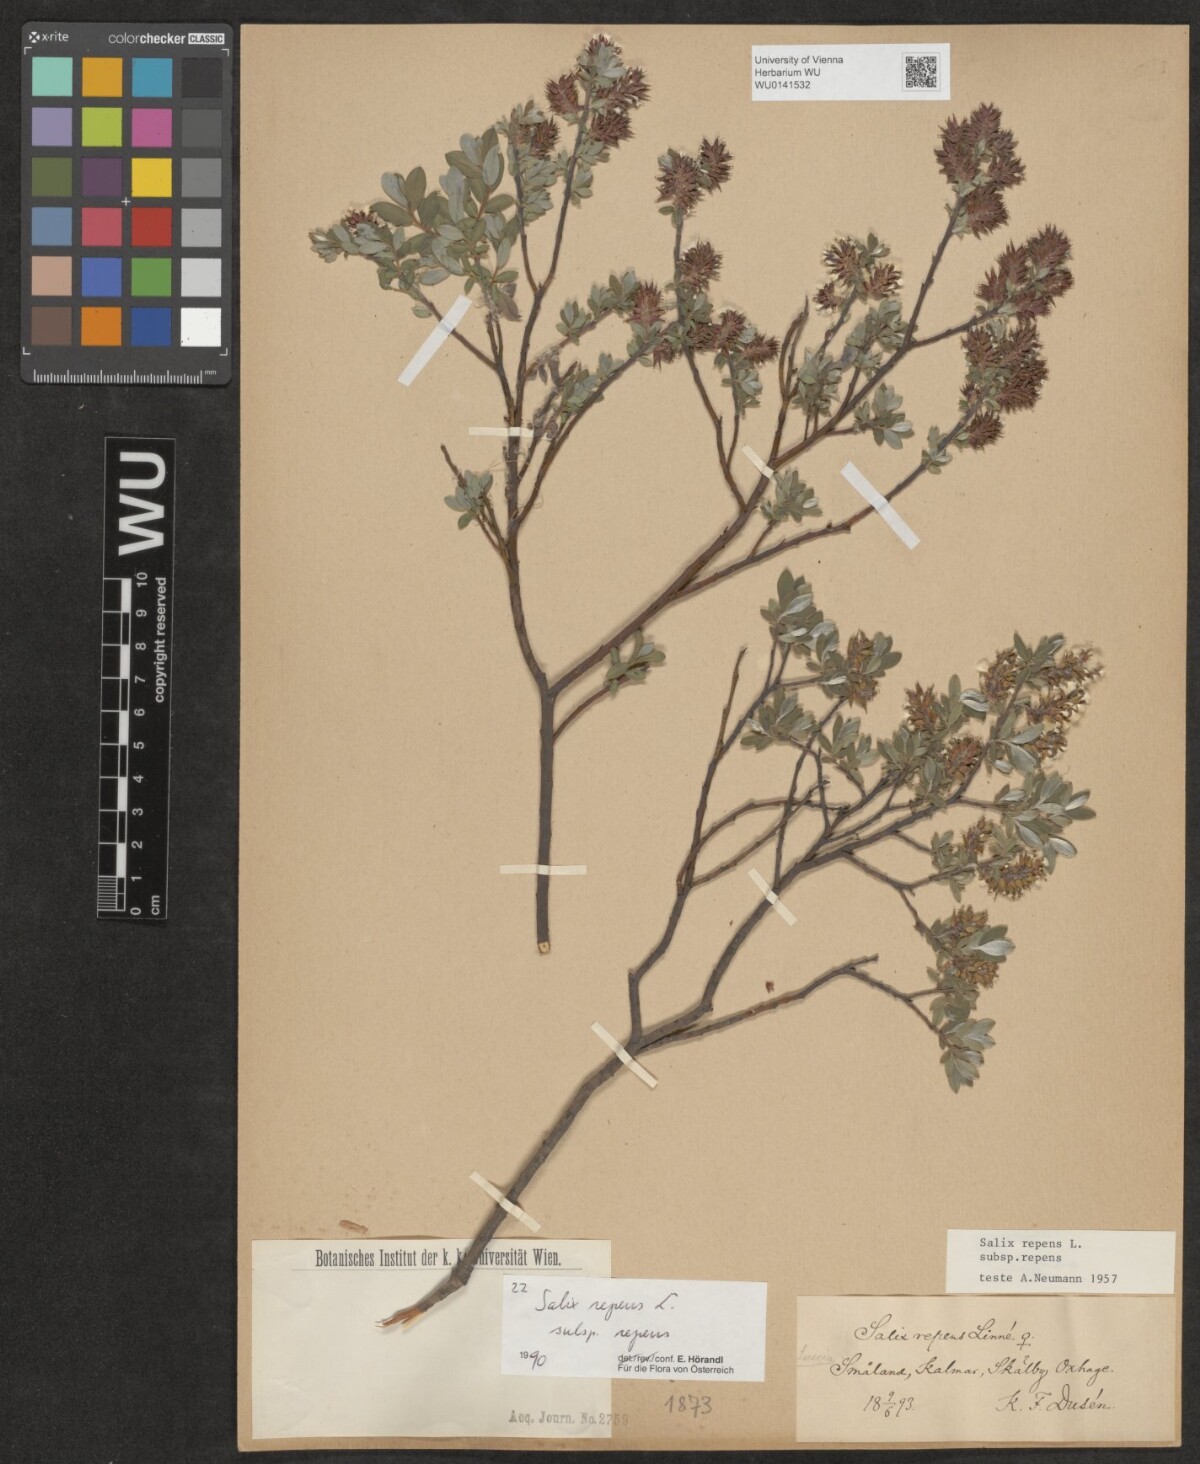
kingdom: Plantae
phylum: Tracheophyta
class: Magnoliopsida
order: Malpighiales
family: Salicaceae
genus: Salix
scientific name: Salix repens
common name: Creeping willow
